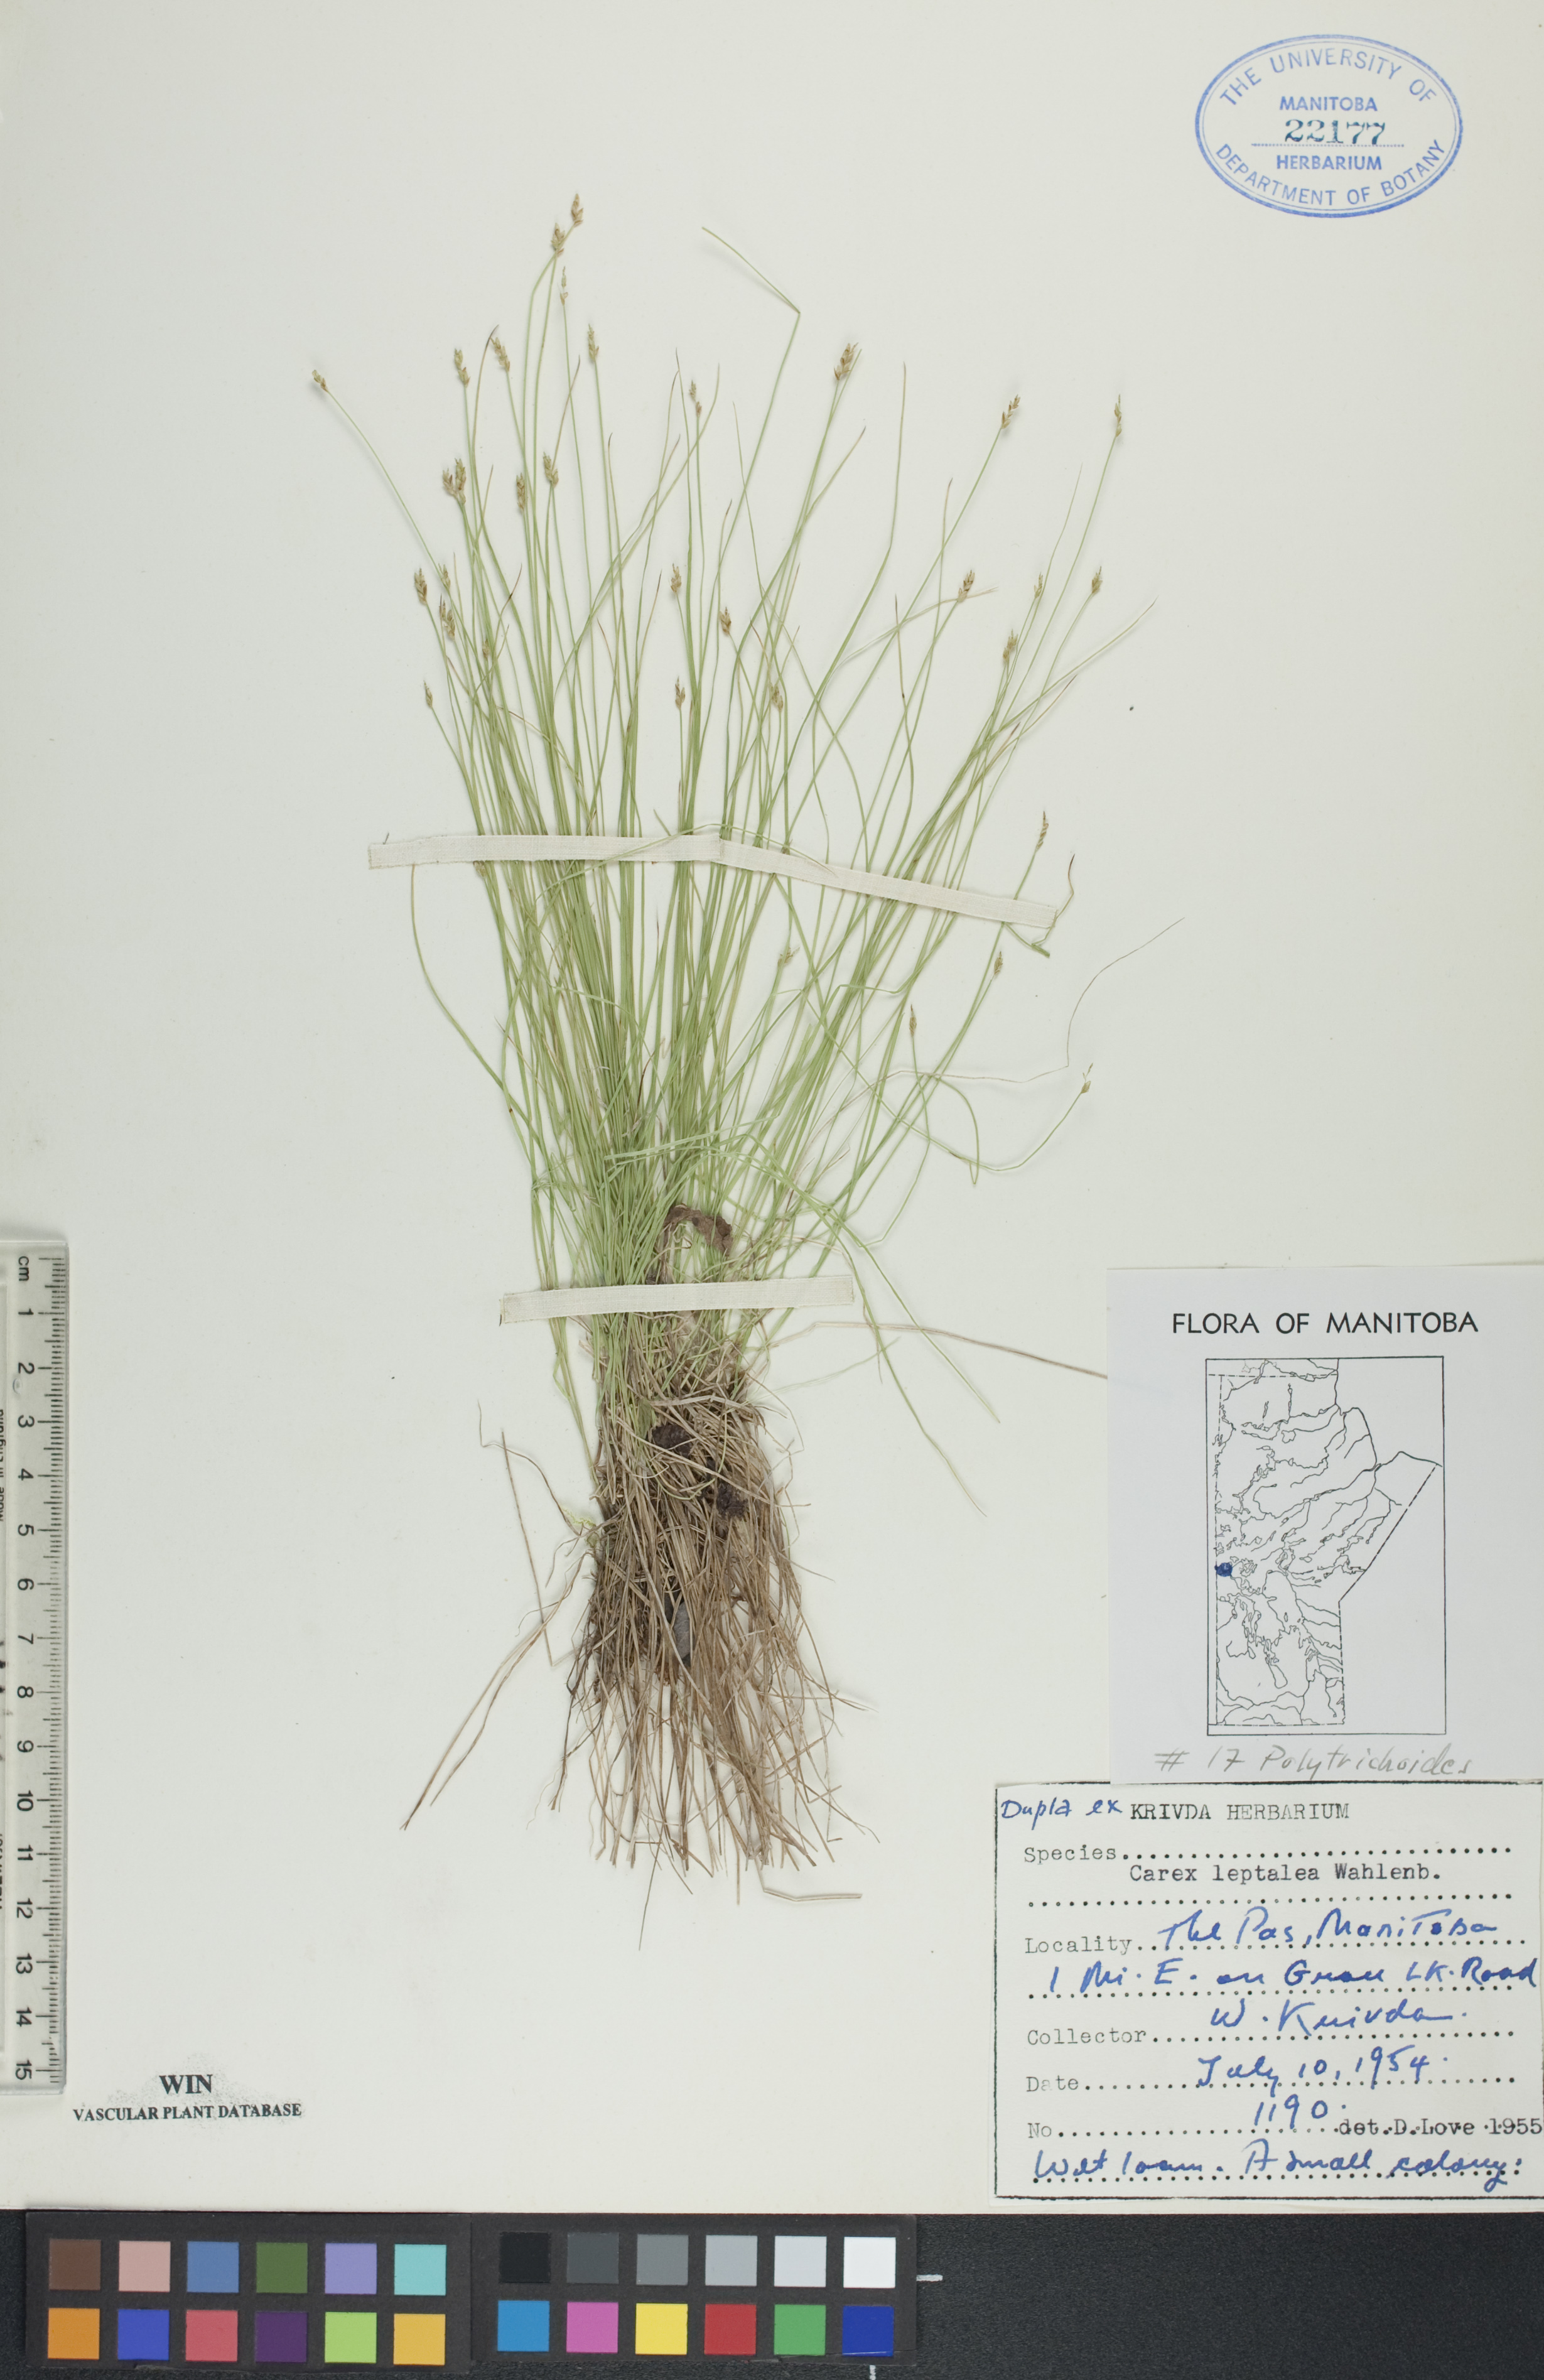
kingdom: Plantae
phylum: Tracheophyta
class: Liliopsida
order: Poales
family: Cyperaceae
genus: Carex
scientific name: Carex leptalea
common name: Bristly-stalked sedge
